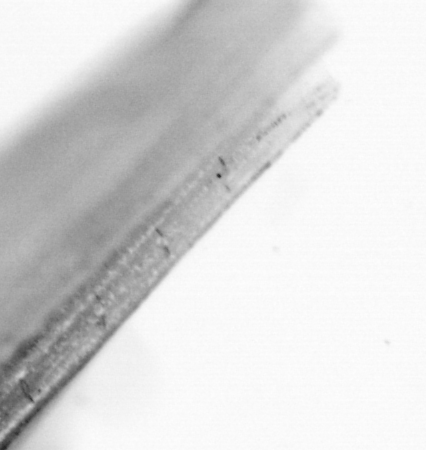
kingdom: Animalia
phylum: Chordata
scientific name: Chordata
